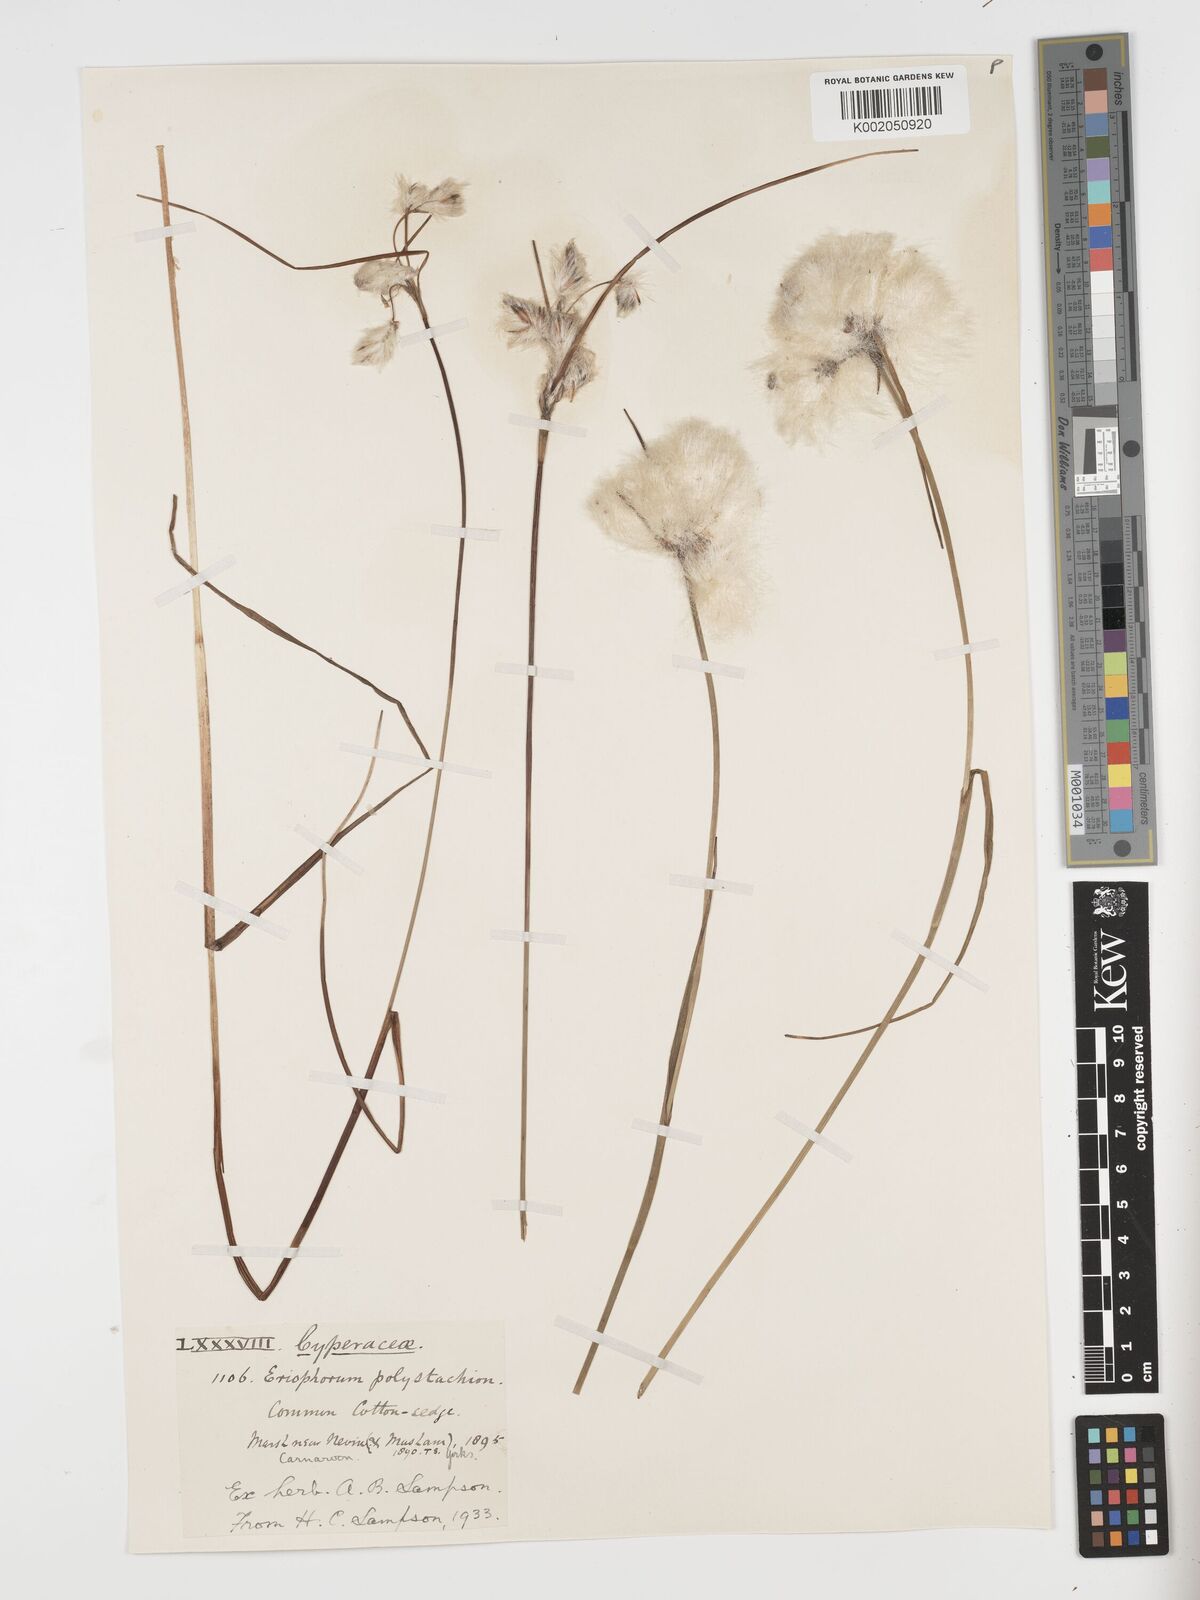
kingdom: Plantae
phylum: Tracheophyta
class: Liliopsida
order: Poales
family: Cyperaceae
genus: Eriophorum
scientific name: Eriophorum angustifolium
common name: Common cottongrass
